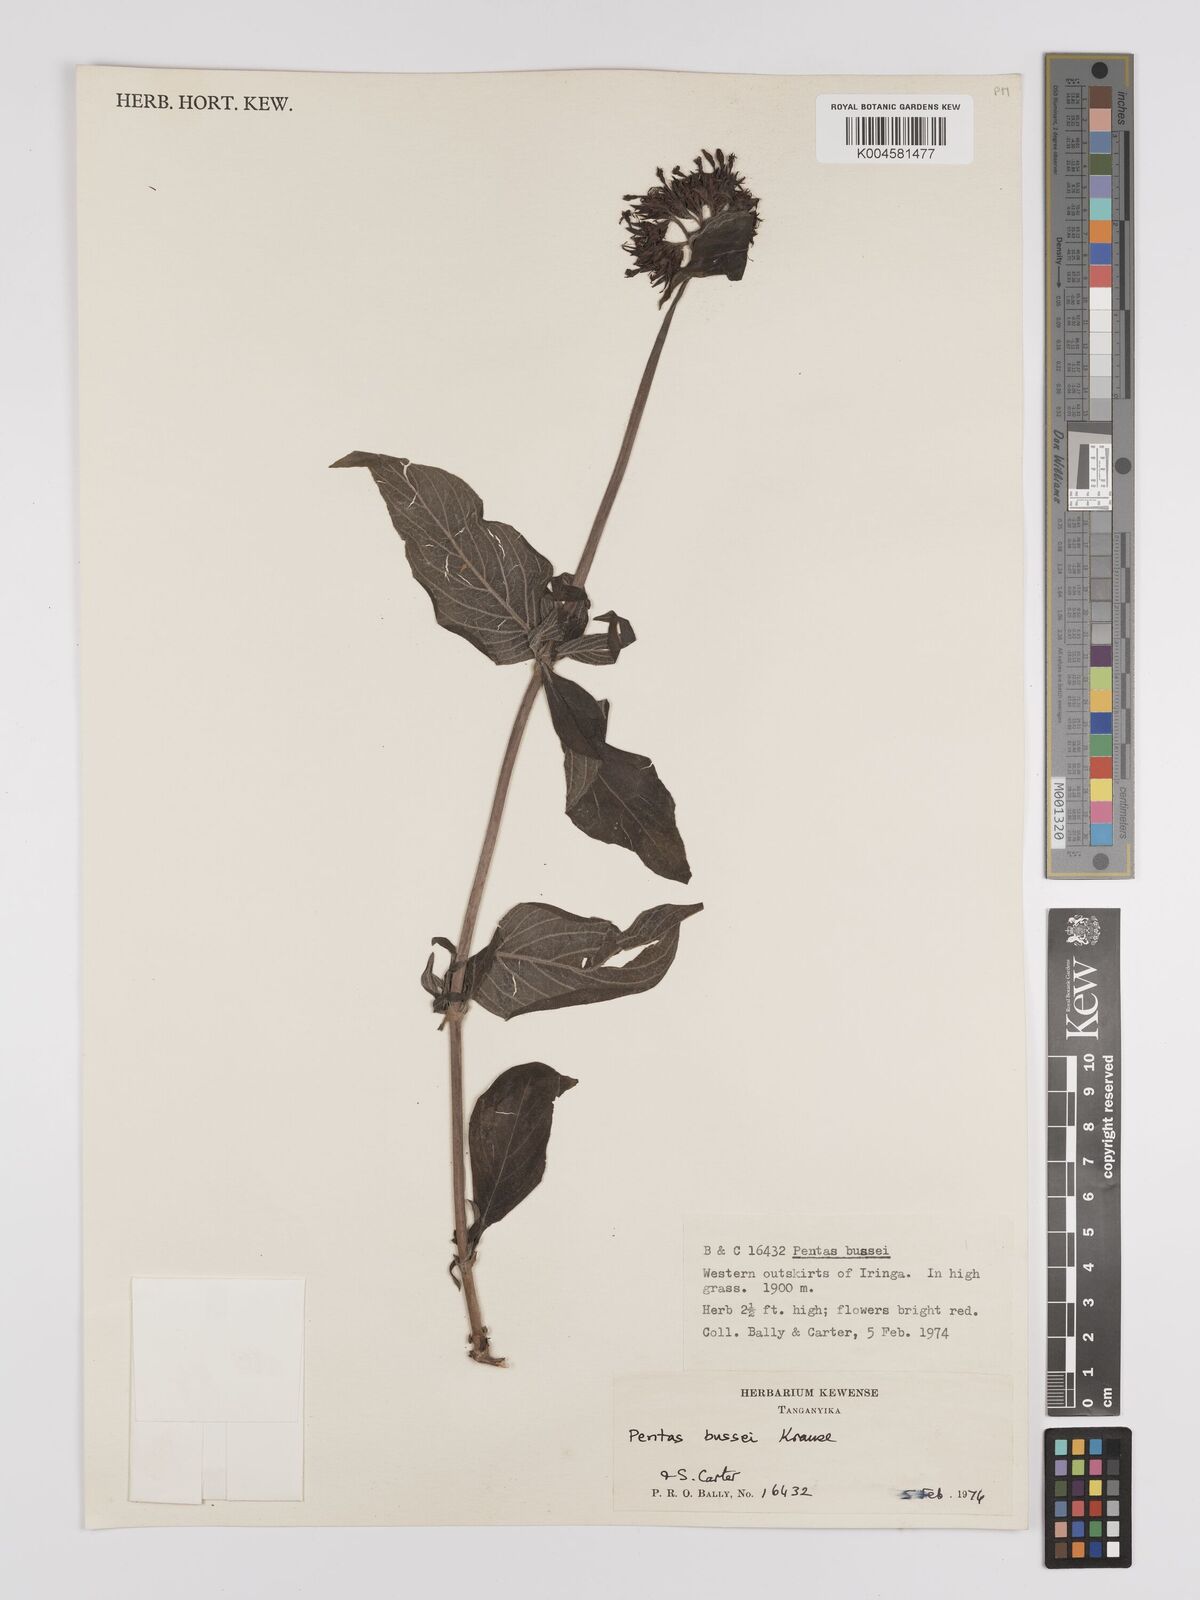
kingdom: Plantae
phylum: Tracheophyta
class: Magnoliopsida
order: Gentianales
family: Rubiaceae
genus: Rhodopentas
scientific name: Rhodopentas bussei
